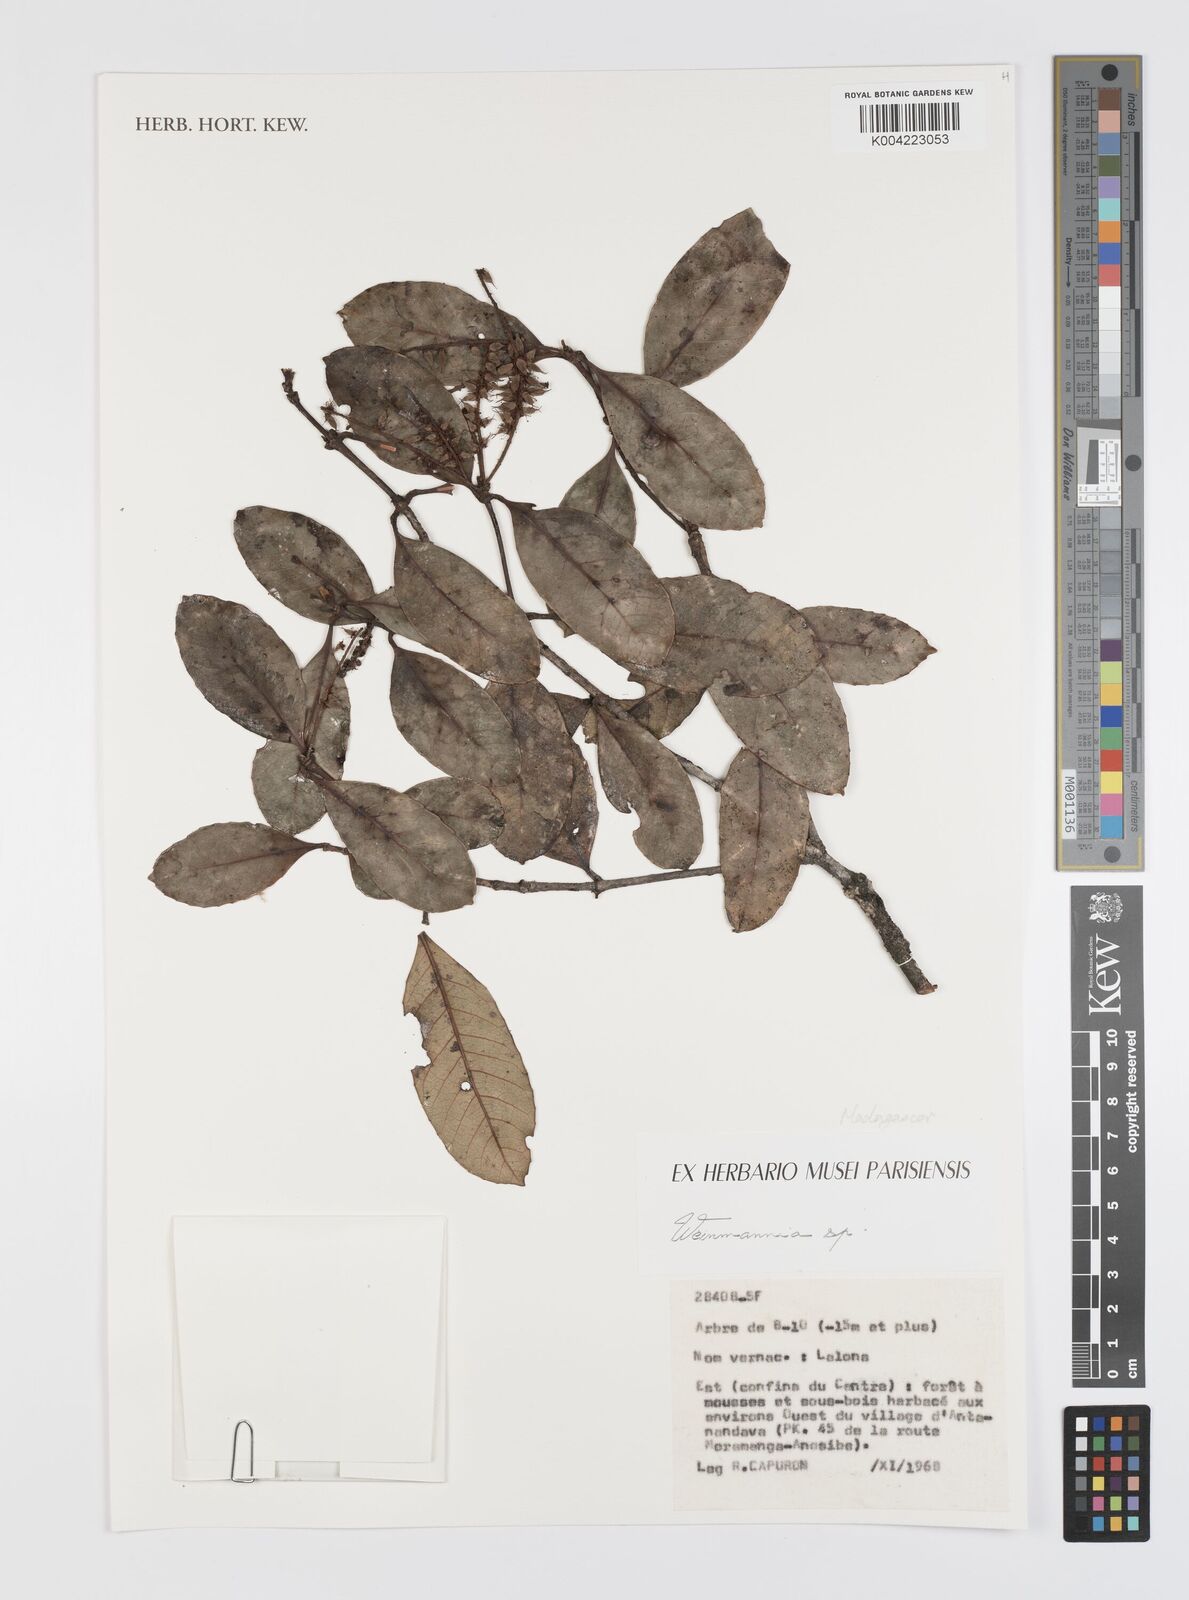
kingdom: Plantae
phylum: Tracheophyta
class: Magnoliopsida
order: Oxalidales
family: Cunoniaceae
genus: Weinmannia
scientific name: Weinmannia
